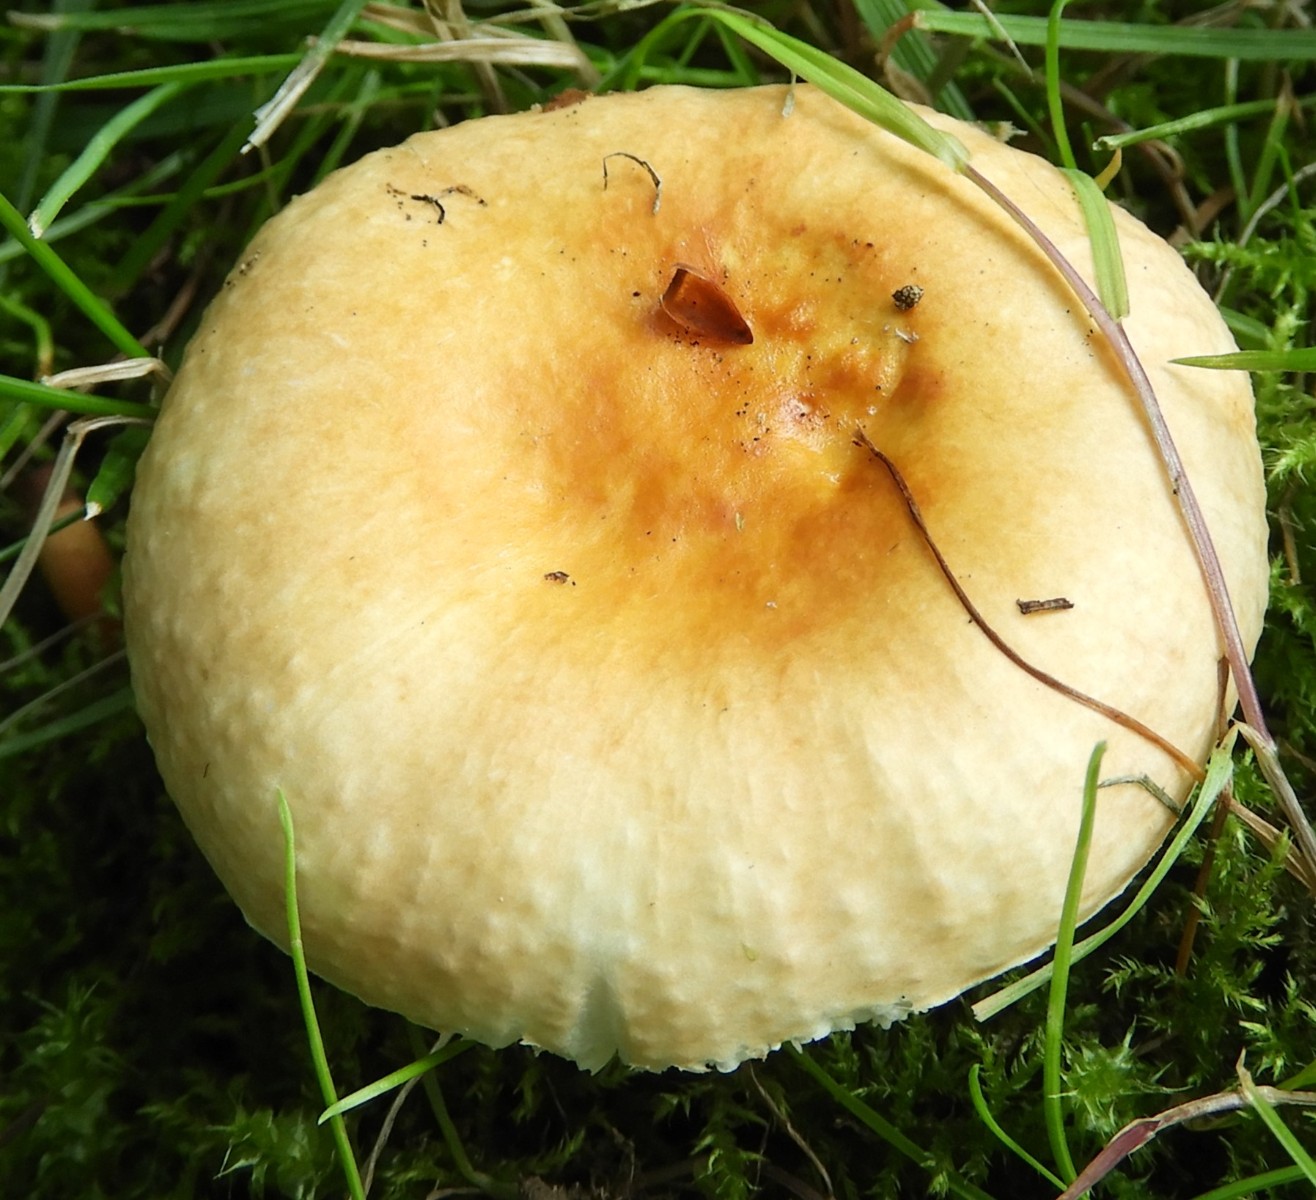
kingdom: Fungi
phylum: Basidiomycota
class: Agaricomycetes
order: Russulales
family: Russulaceae
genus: Russula
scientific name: Russula solaris
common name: sol-skørhat
